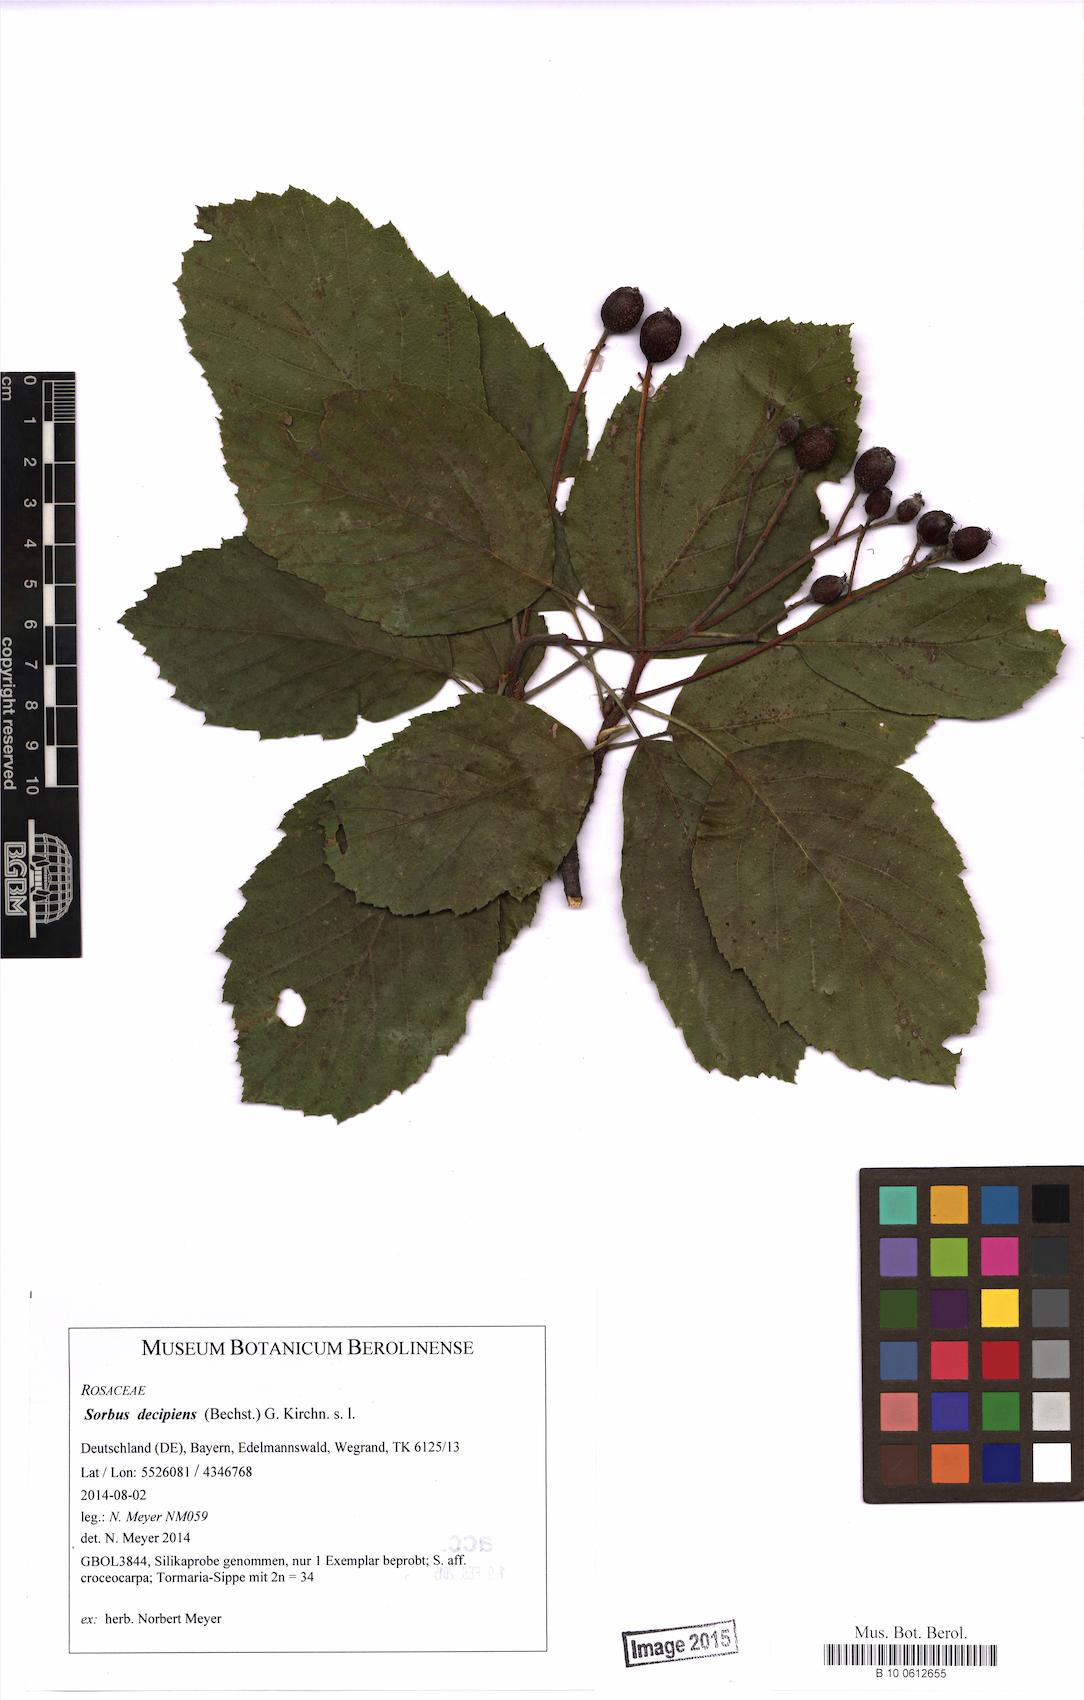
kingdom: Plantae
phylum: Tracheophyta
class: Magnoliopsida
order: Rosales
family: Rosaceae
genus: Karpatiosorbus
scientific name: Karpatiosorbus hybrida
